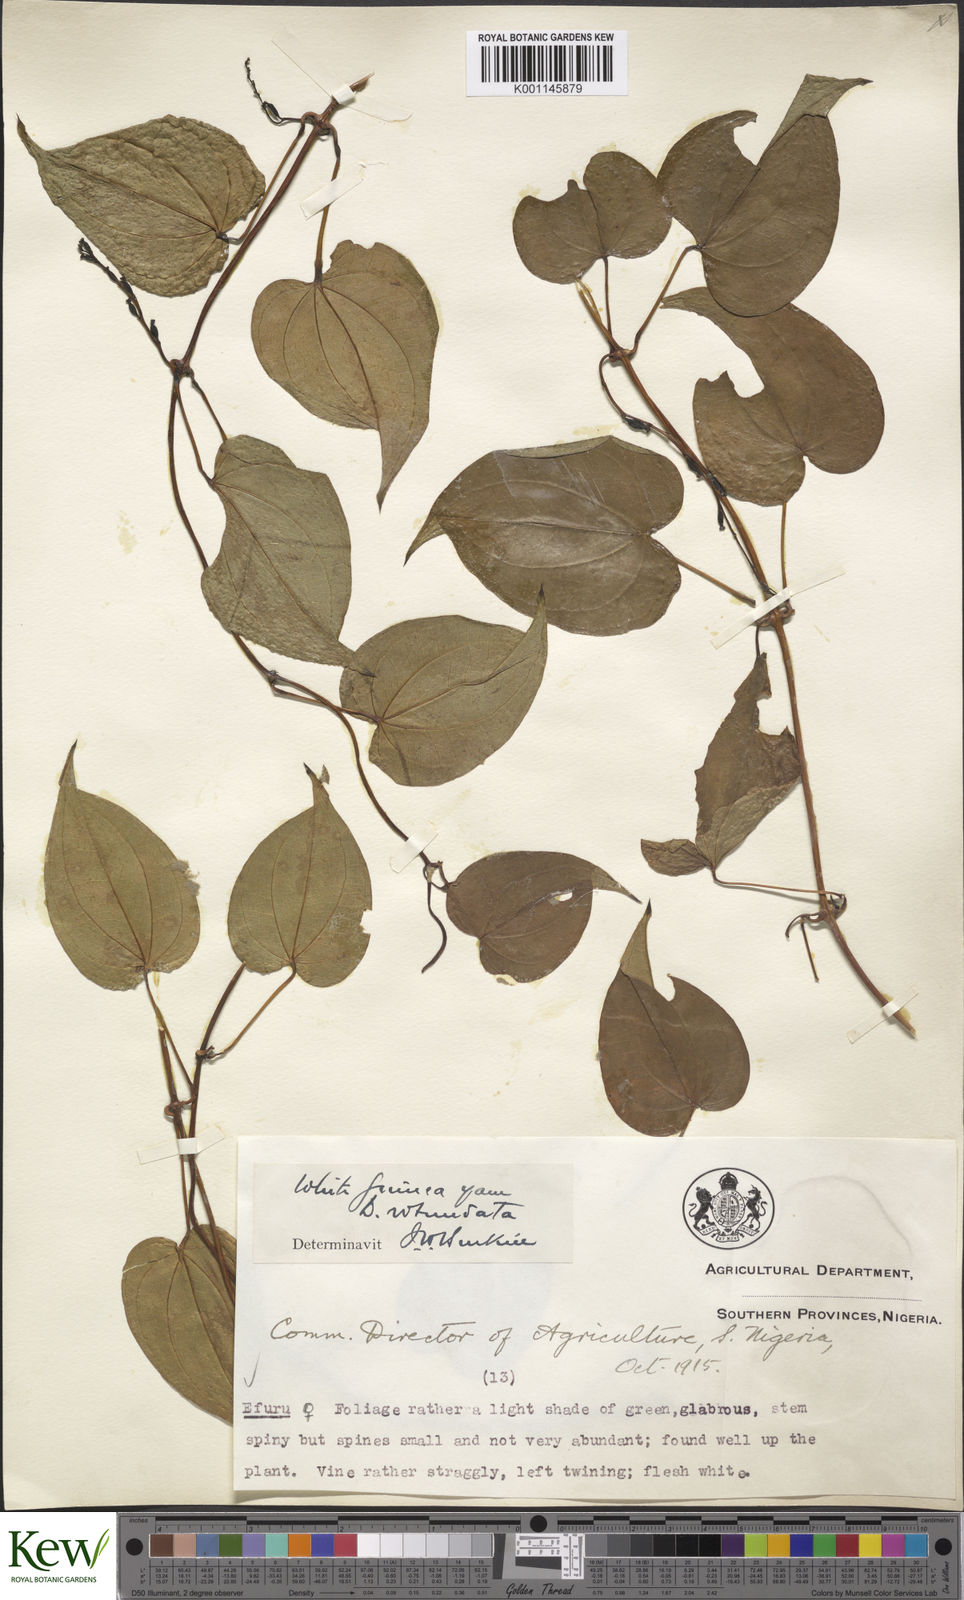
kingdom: Plantae
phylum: Tracheophyta
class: Liliopsida
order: Dioscoreales
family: Dioscoreaceae
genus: Dioscorea
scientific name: Dioscorea cayenensis
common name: Attoto yam
